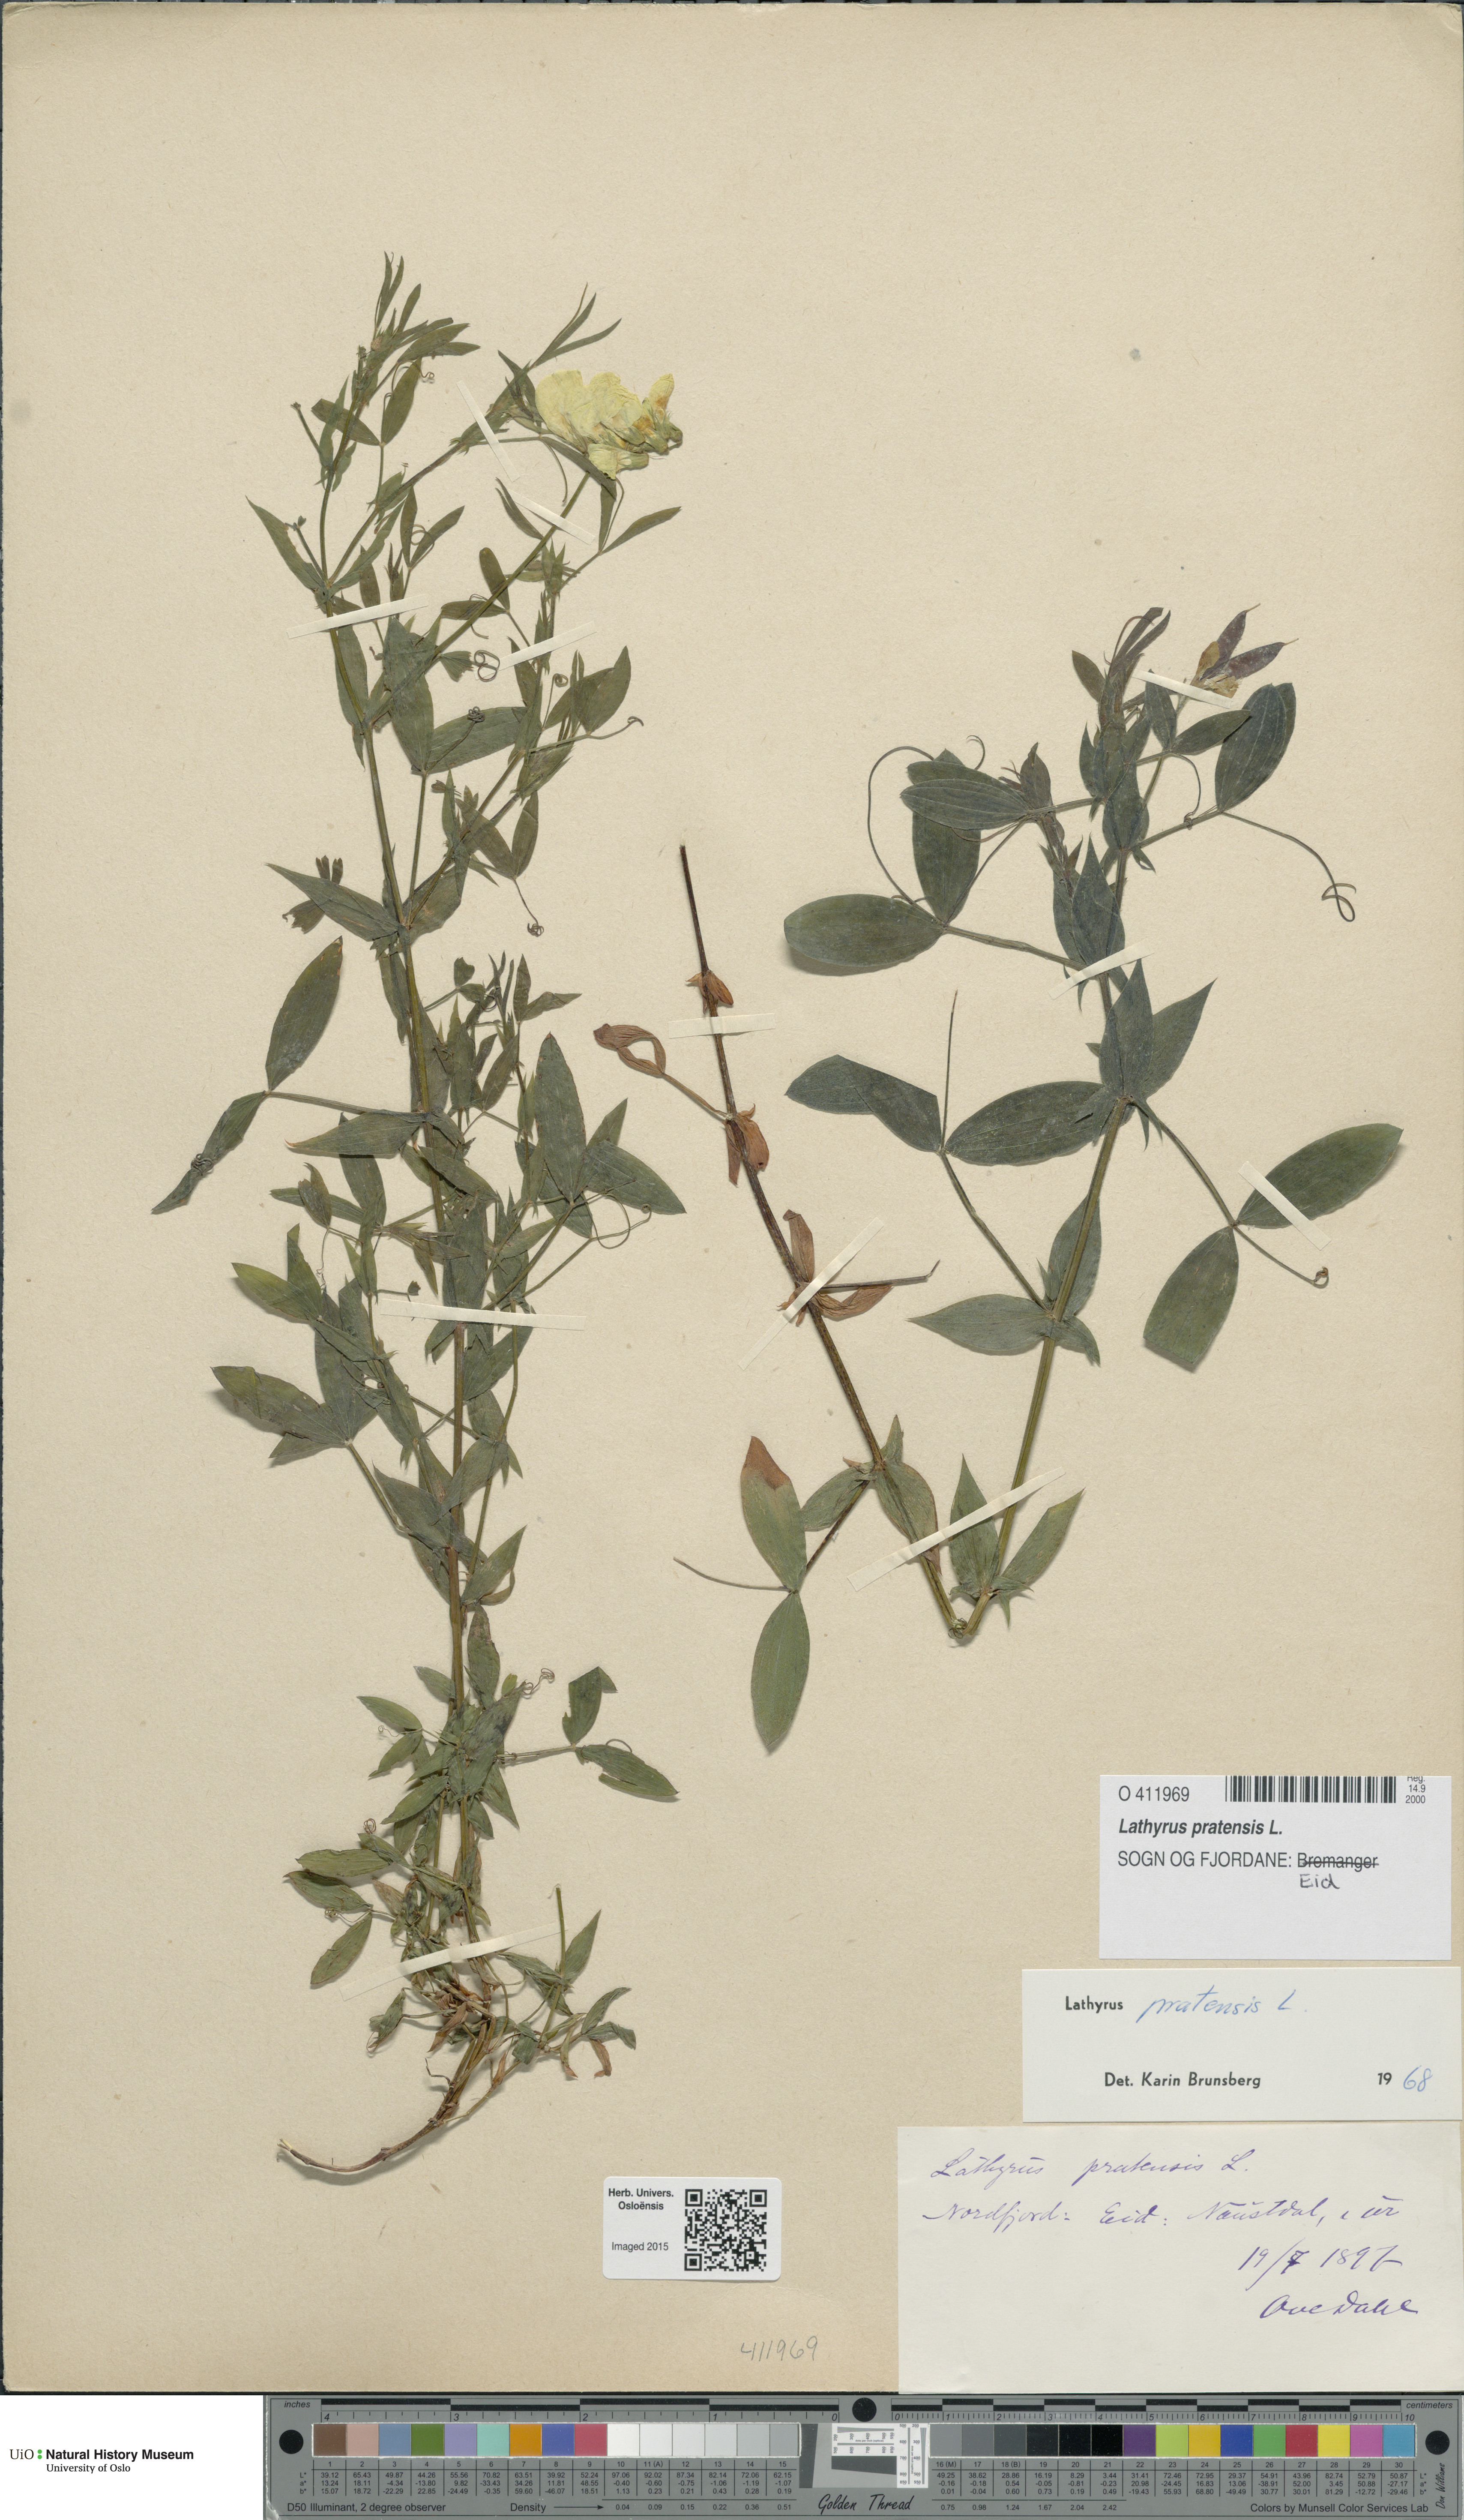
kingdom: Plantae
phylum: Tracheophyta
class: Magnoliopsida
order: Fabales
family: Fabaceae
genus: Lathyrus
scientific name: Lathyrus pratensis
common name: Meadow vetchling
